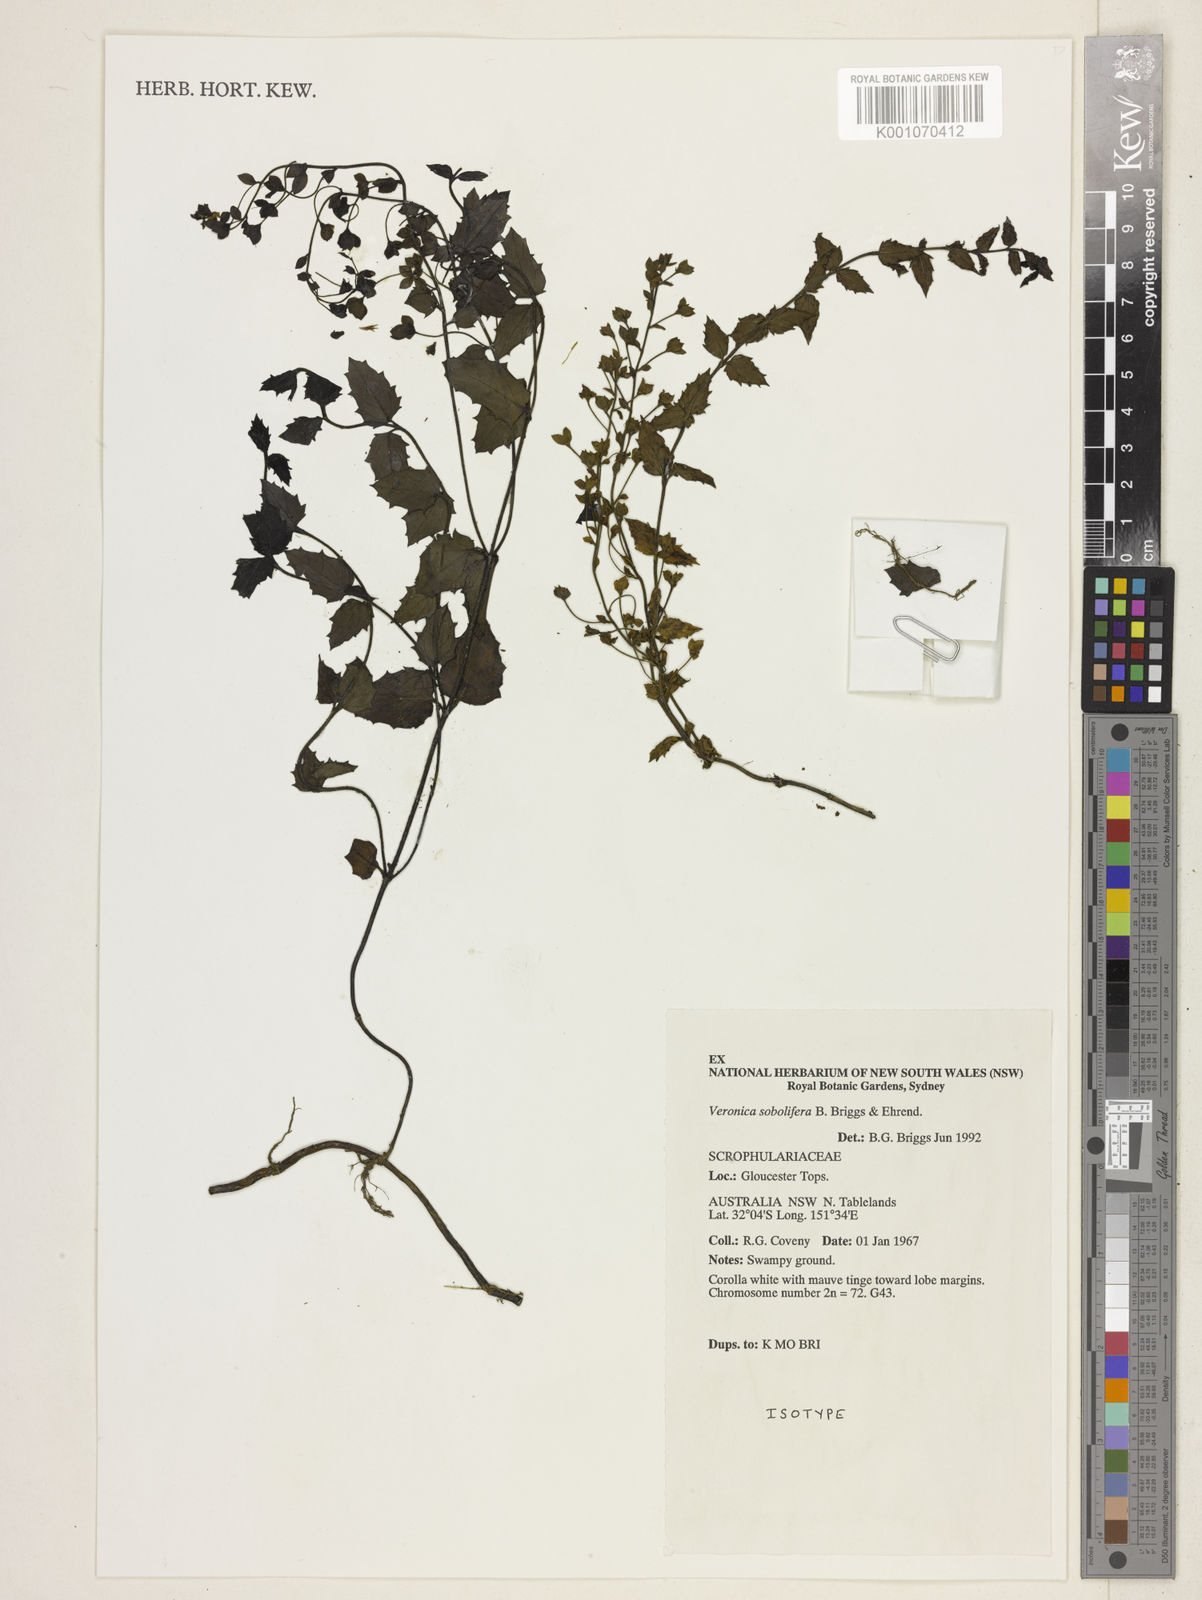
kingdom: Plantae
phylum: Tracheophyta
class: Magnoliopsida
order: Lamiales
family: Plantaginaceae
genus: Veronica
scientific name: Veronica sobolifera
